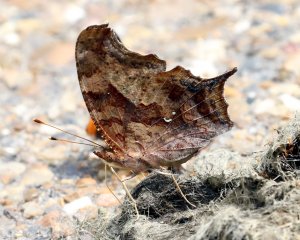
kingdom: Animalia
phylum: Arthropoda
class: Insecta
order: Lepidoptera
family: Nymphalidae
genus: Polygonia
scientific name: Polygonia interrogationis
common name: Question Mark
